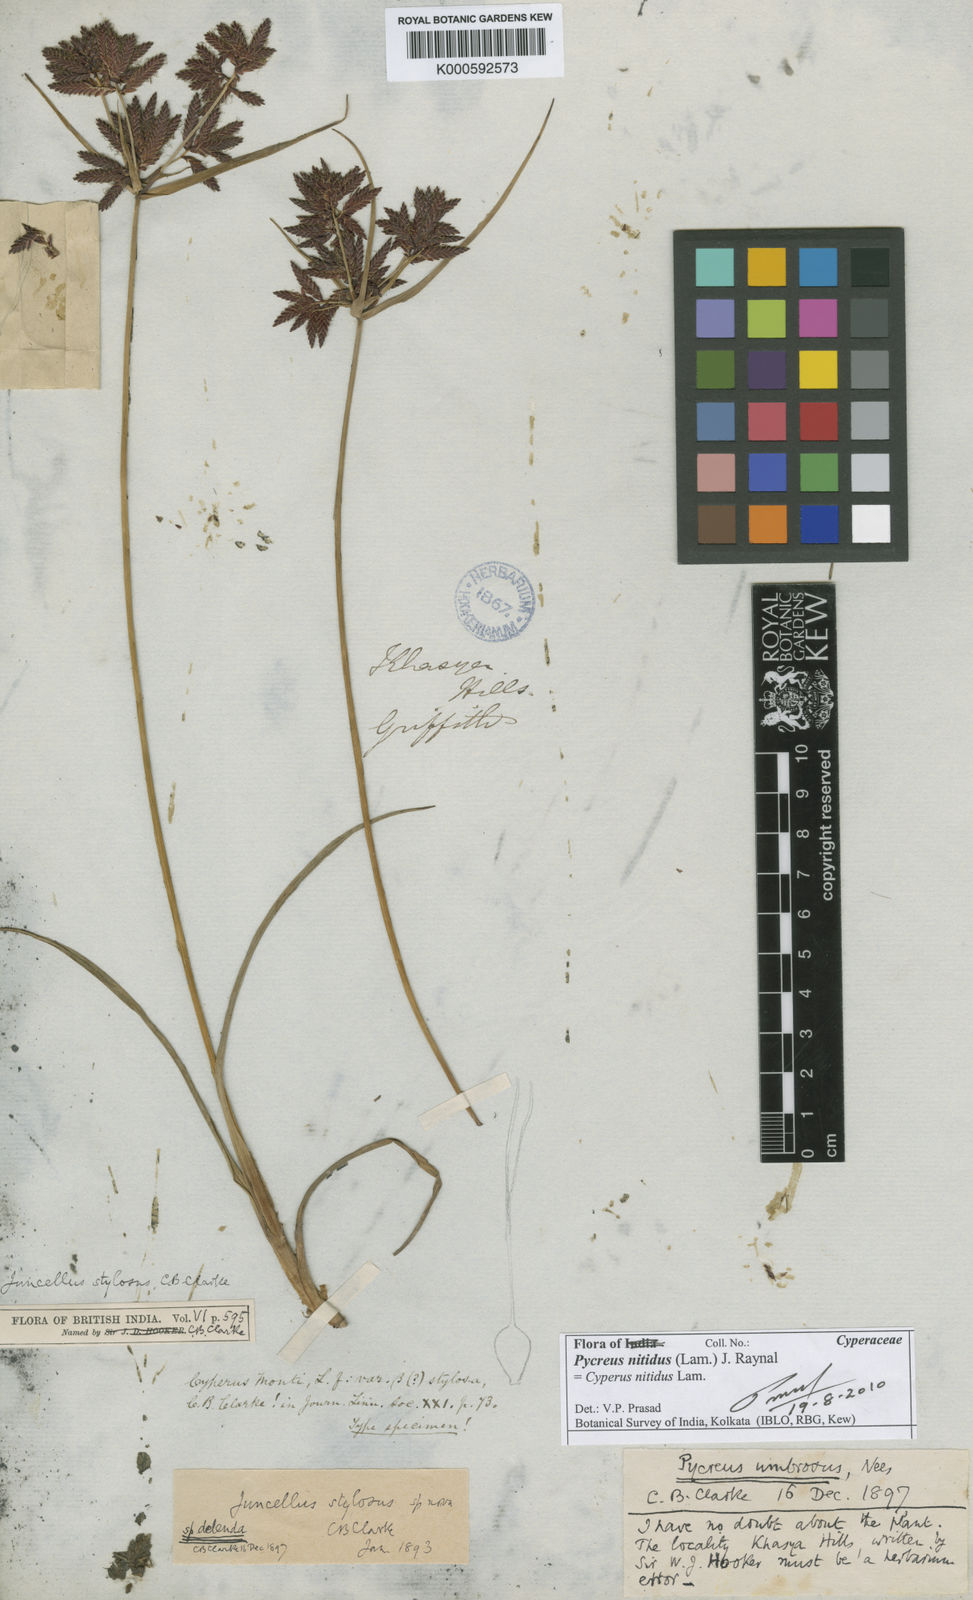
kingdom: Plantae
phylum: Tracheophyta
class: Liliopsida
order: Poales
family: Cyperaceae
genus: Cyperus
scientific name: Cyperus nitidus
